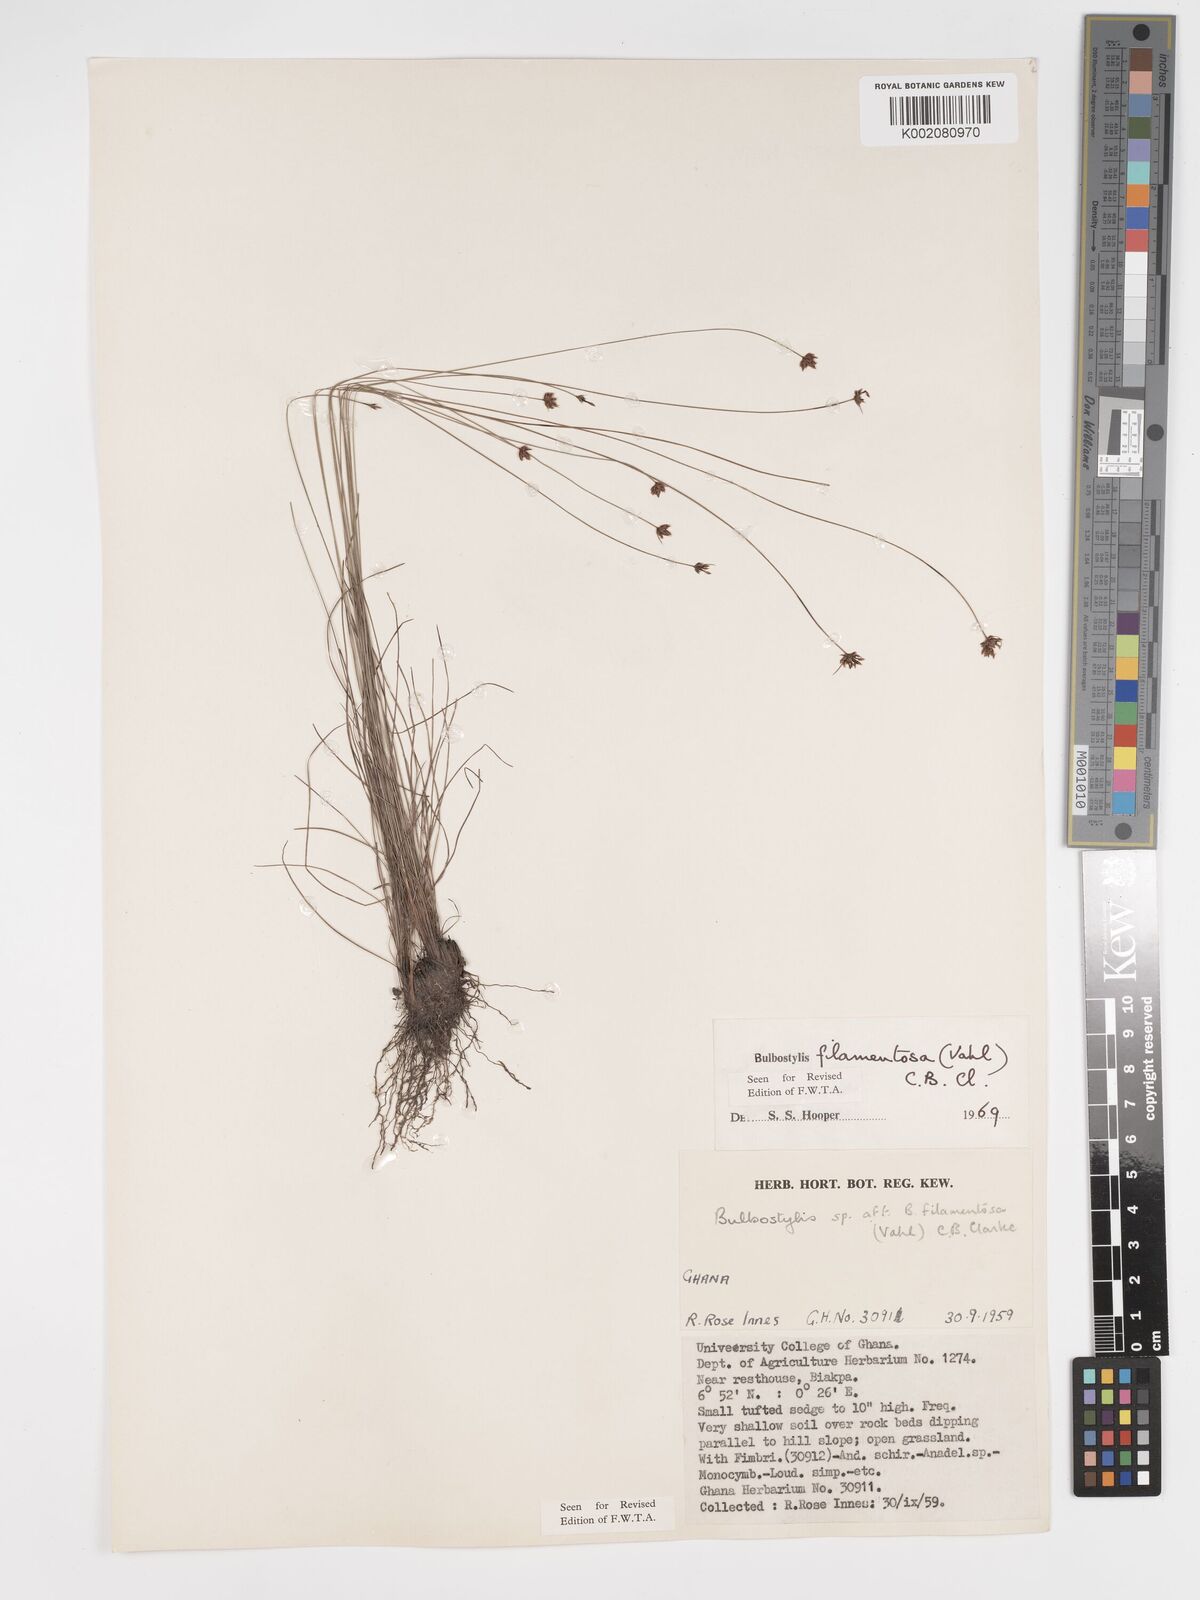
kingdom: Plantae
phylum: Tracheophyta
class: Liliopsida
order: Poales
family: Cyperaceae
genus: Bulbostylis
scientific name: Bulbostylis filamentosa
